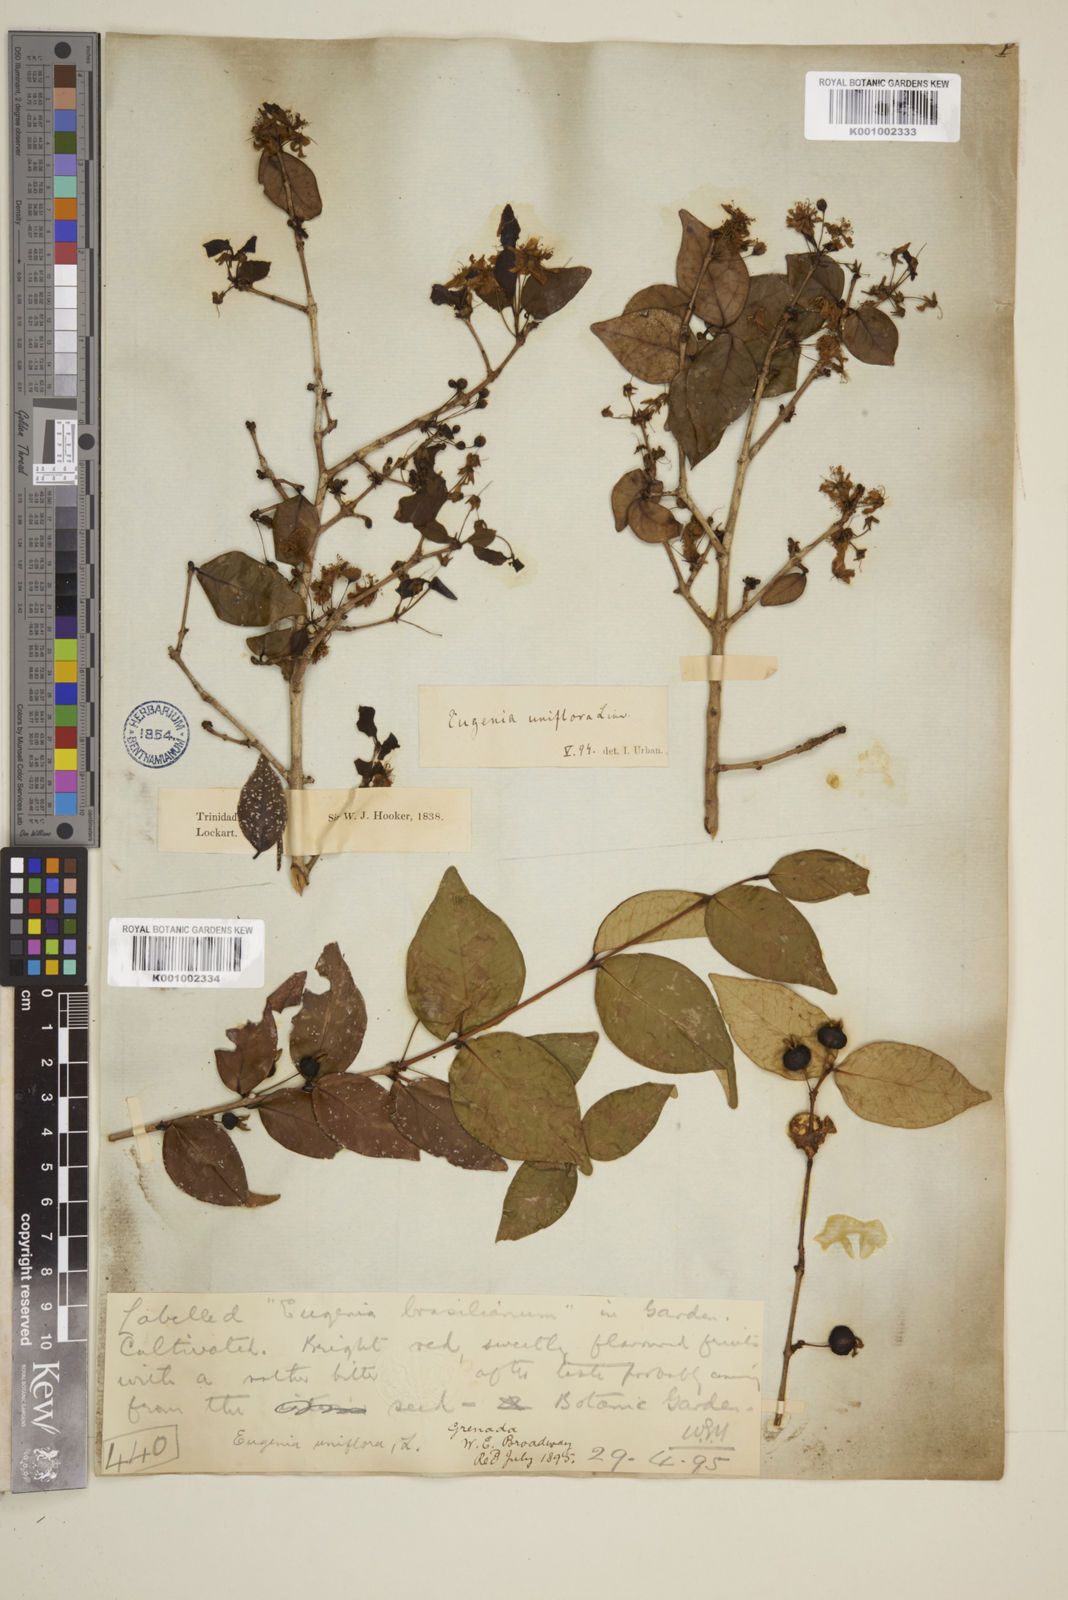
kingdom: Plantae
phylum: Tracheophyta
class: Magnoliopsida
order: Myrtales
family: Myrtaceae
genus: Eugenia
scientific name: Eugenia uniflora
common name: Surinam cherry
